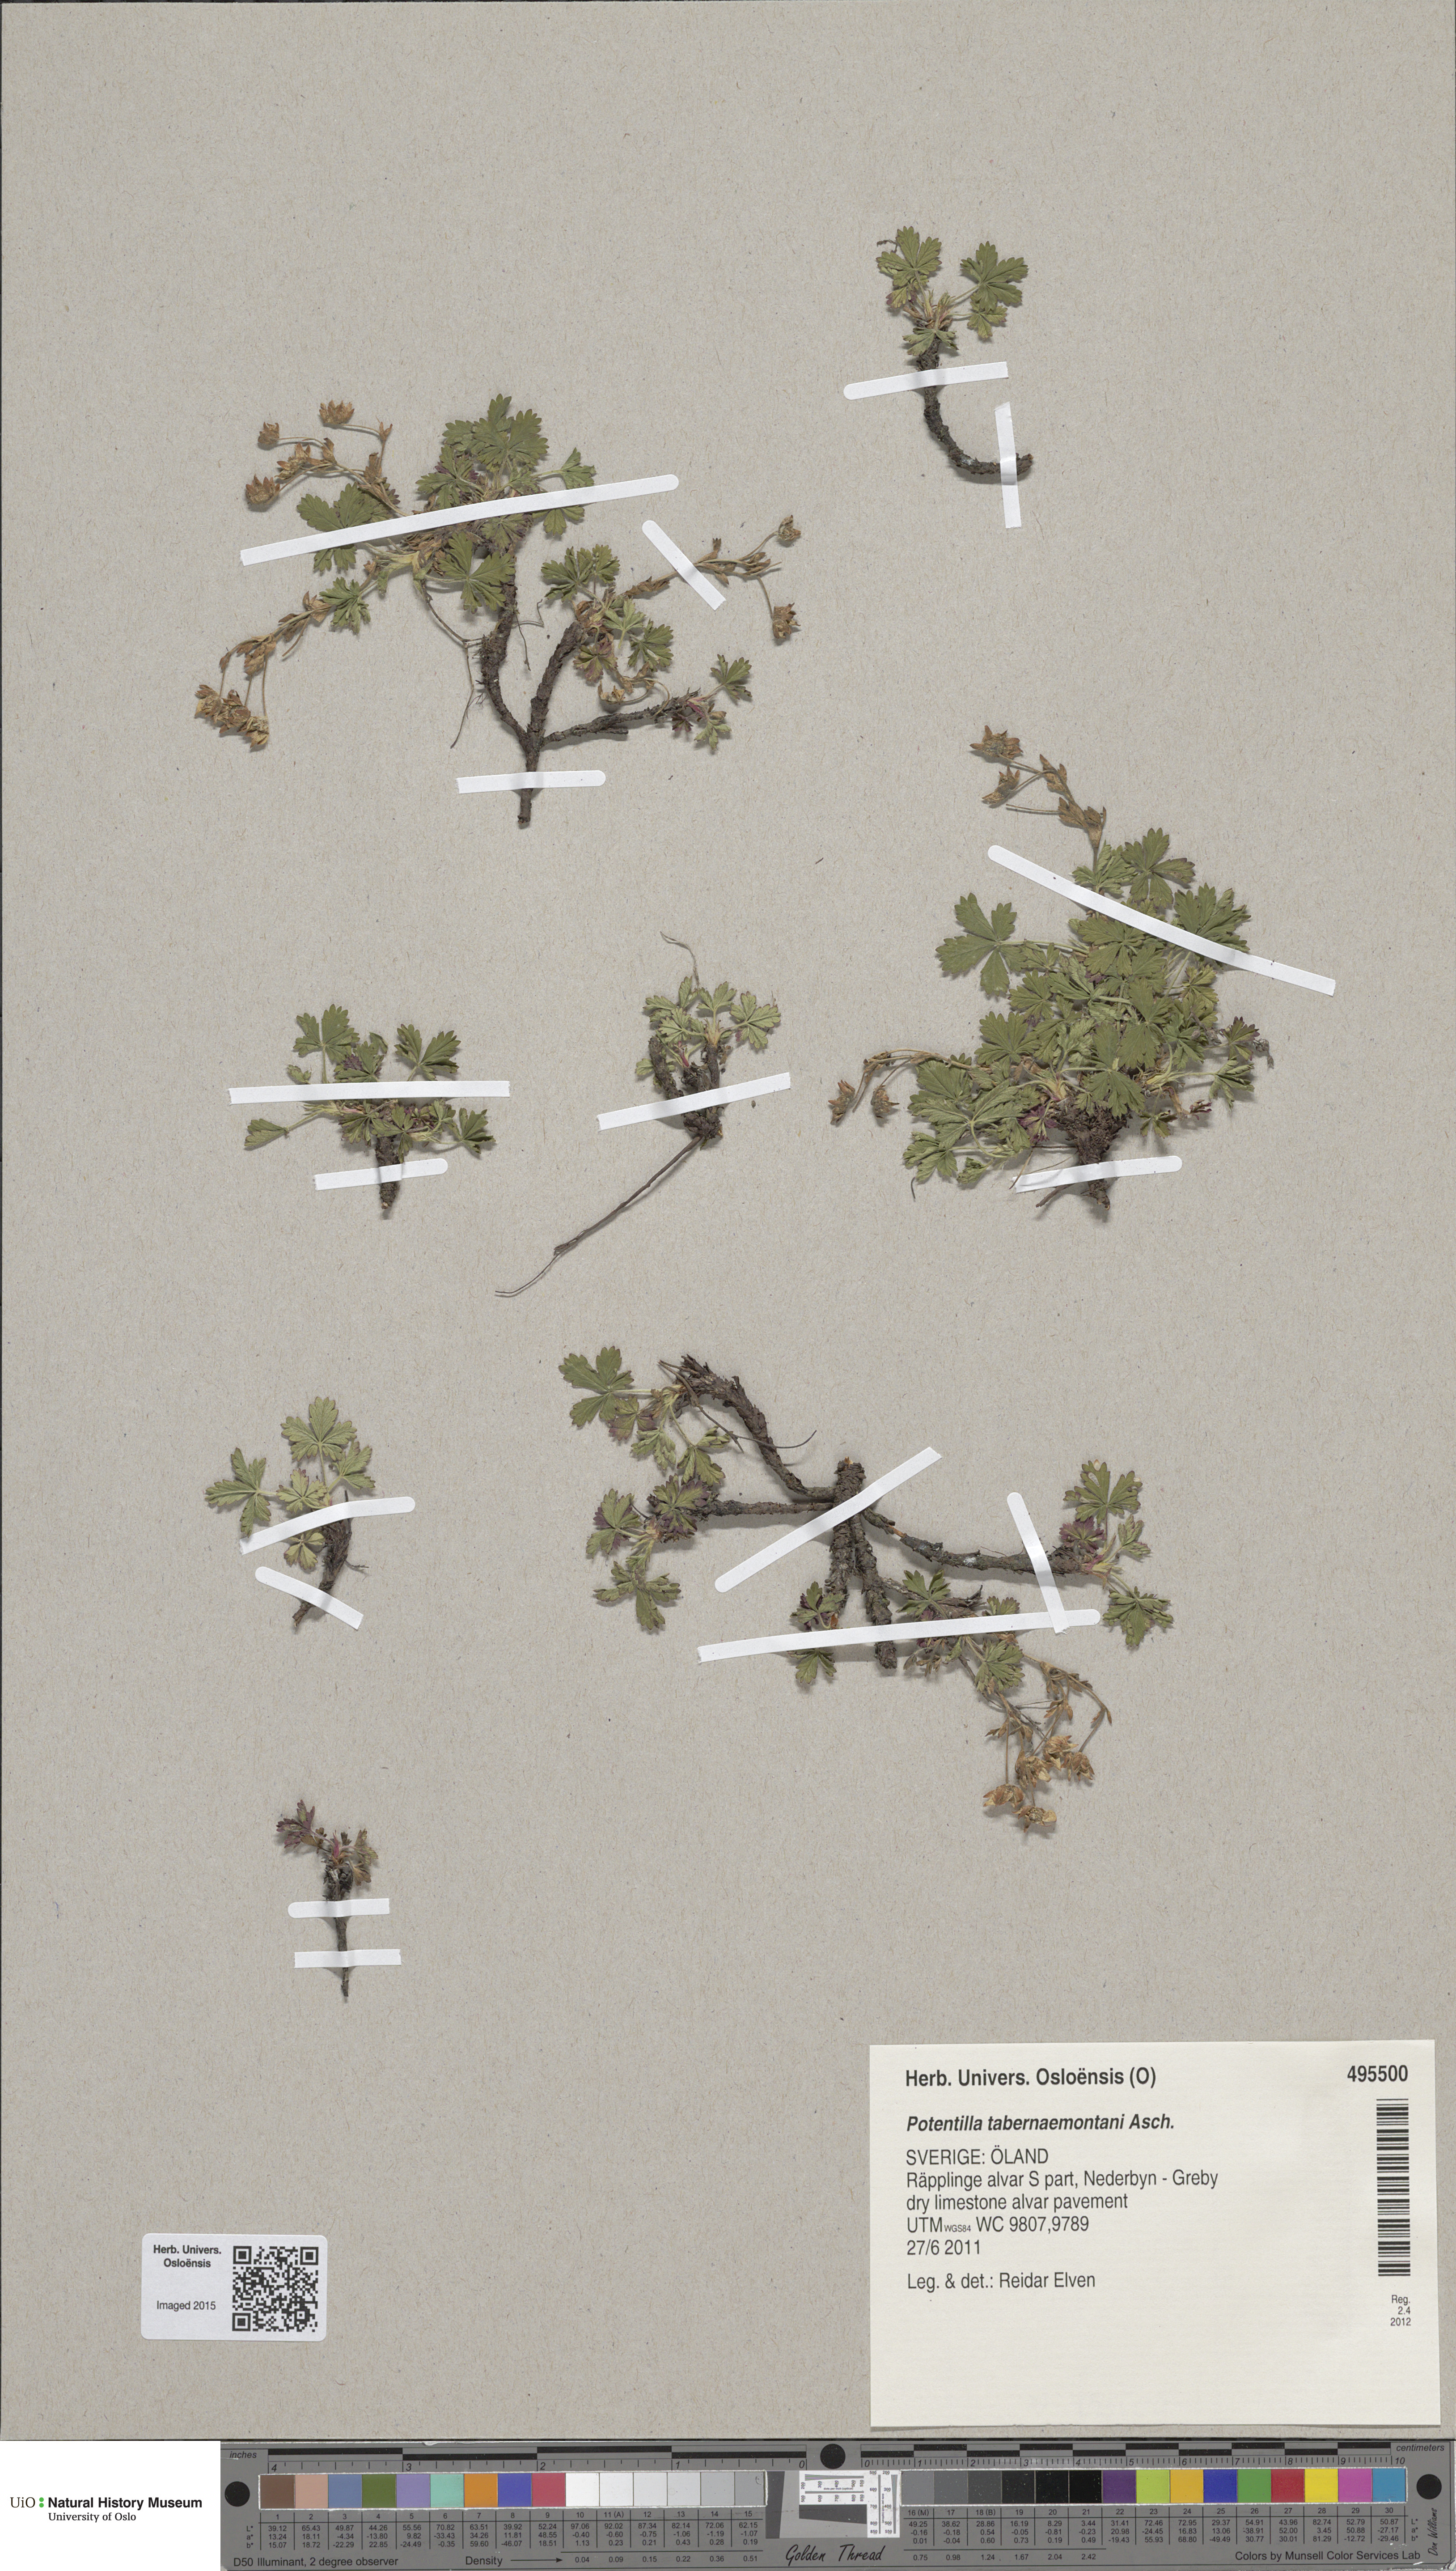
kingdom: Plantae
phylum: Tracheophyta
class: Magnoliopsida
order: Rosales
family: Rosaceae
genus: Potentilla
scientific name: Potentilla verna
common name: Spring cinquefoil
